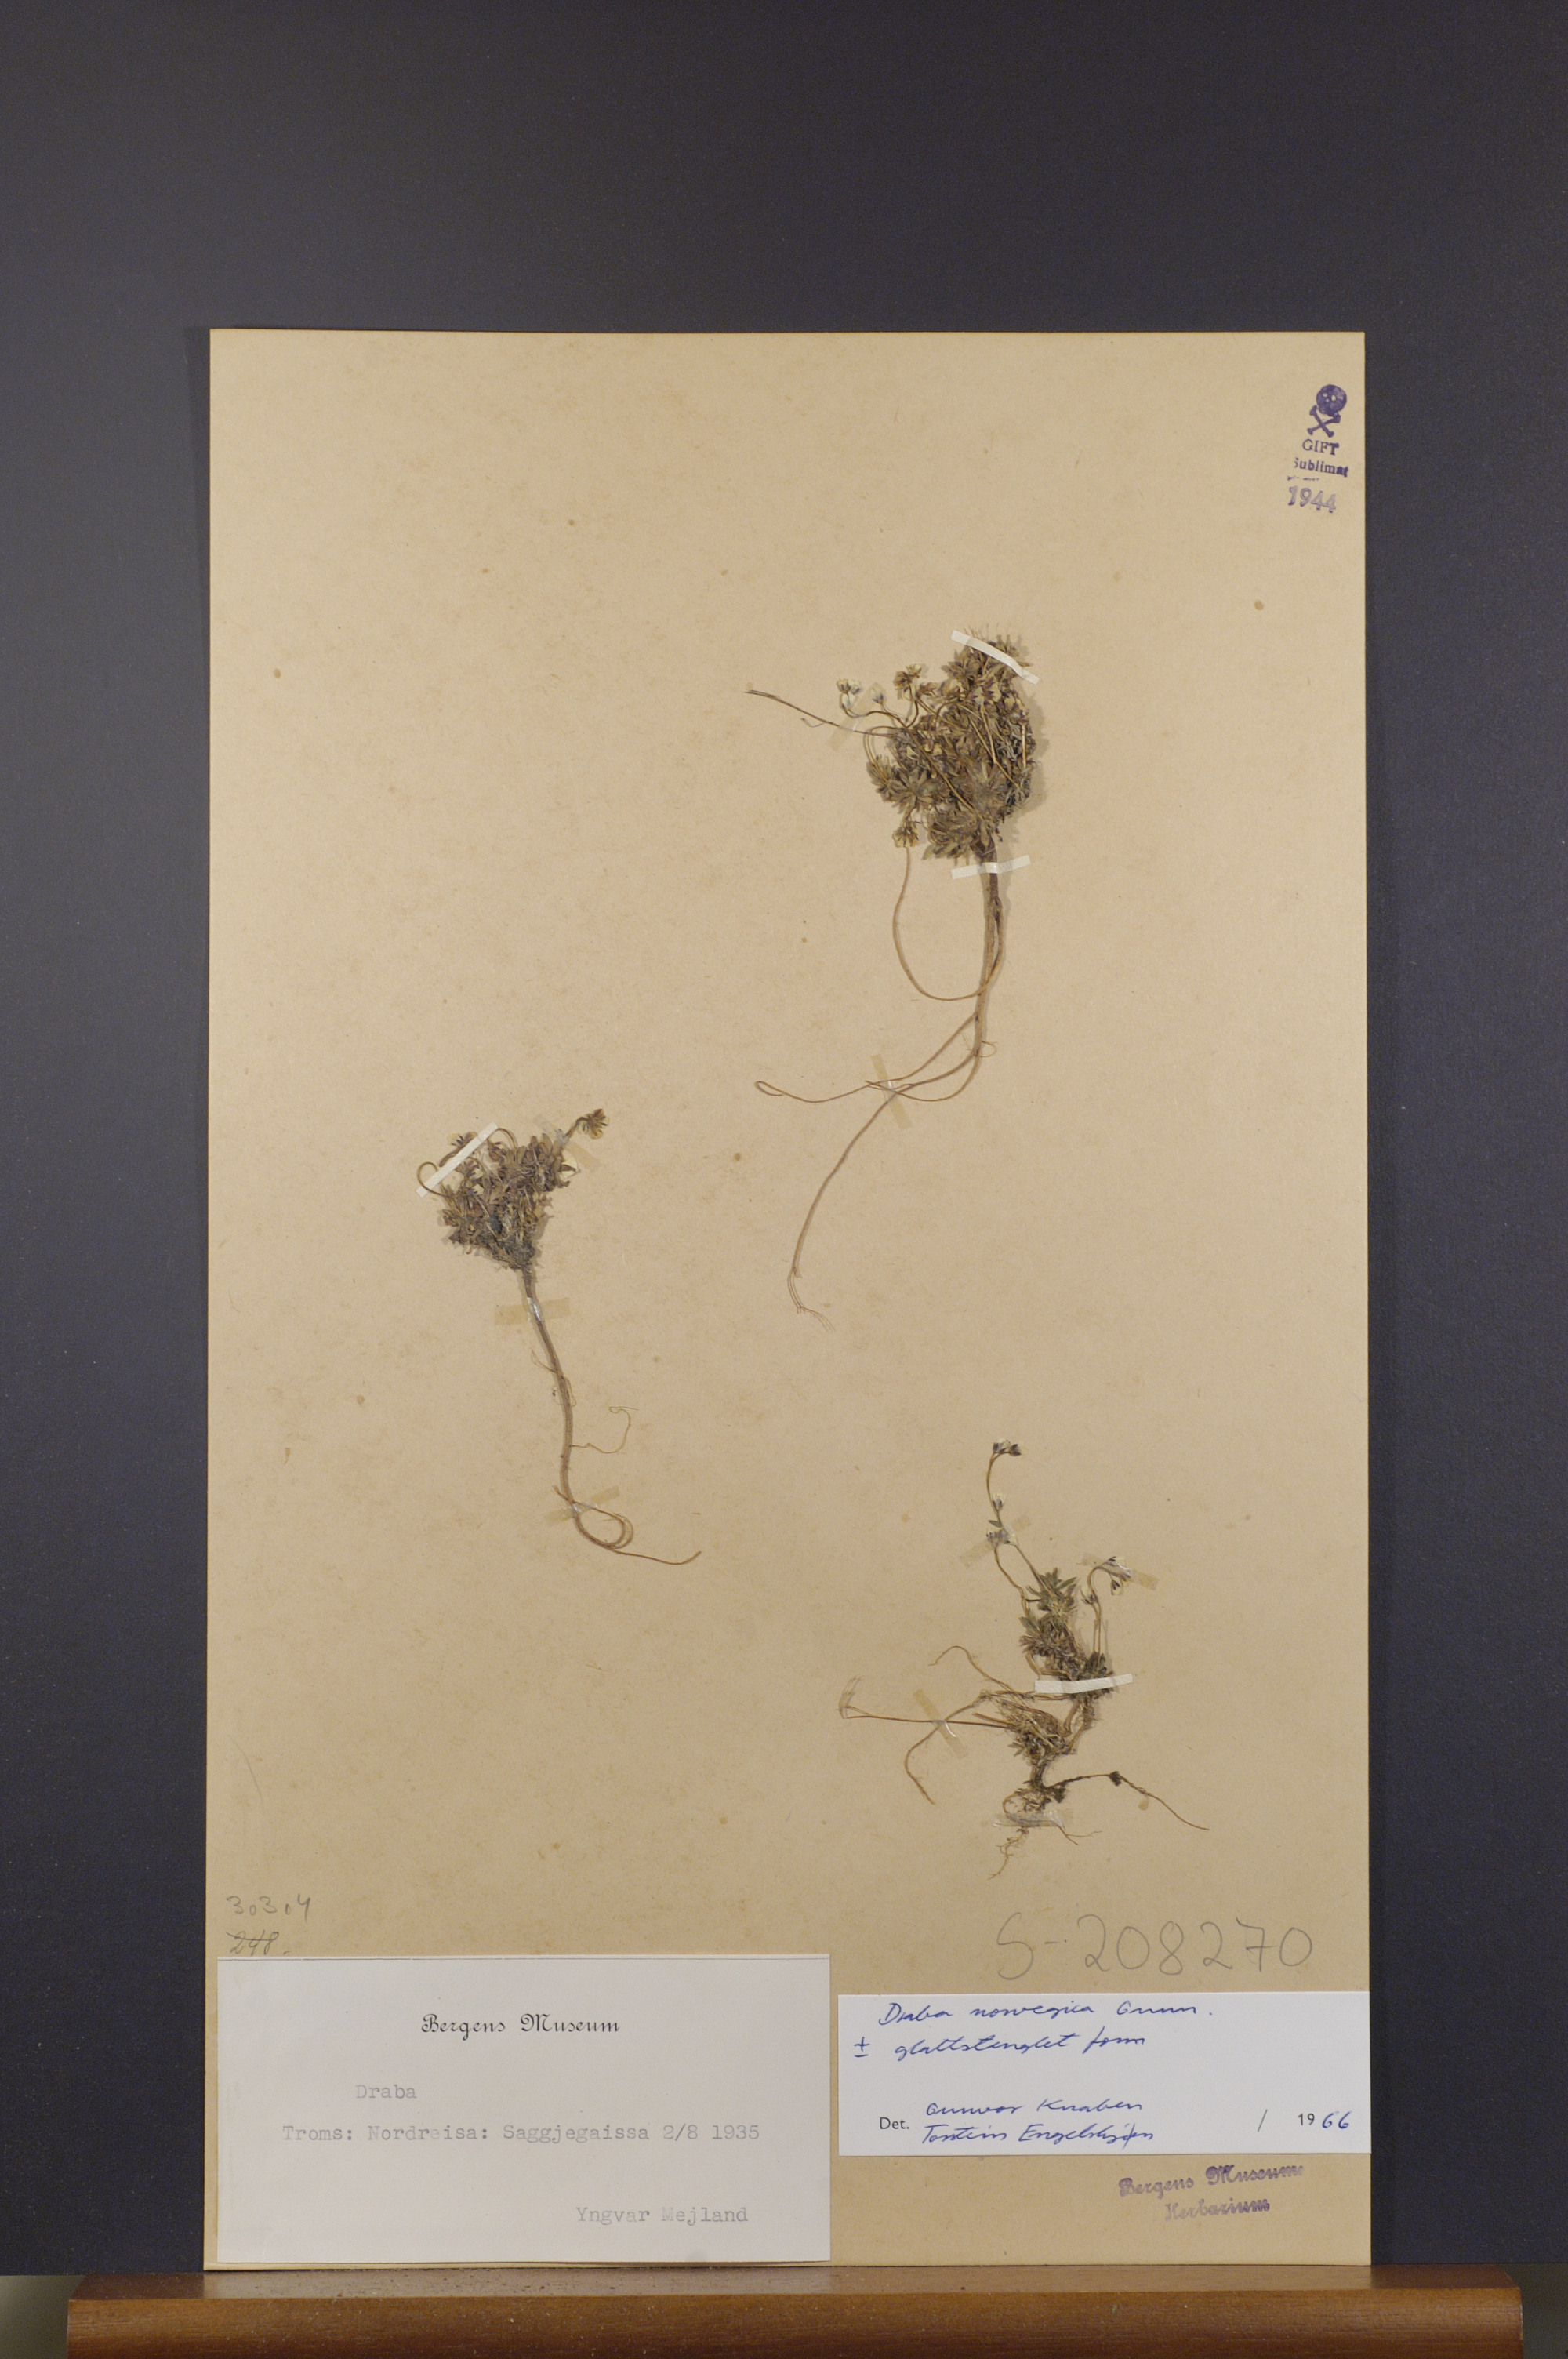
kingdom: Plantae
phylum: Tracheophyta
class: Magnoliopsida
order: Brassicales
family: Brassicaceae
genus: Draba
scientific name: Draba norvegica
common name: Rock whitlowgrass
